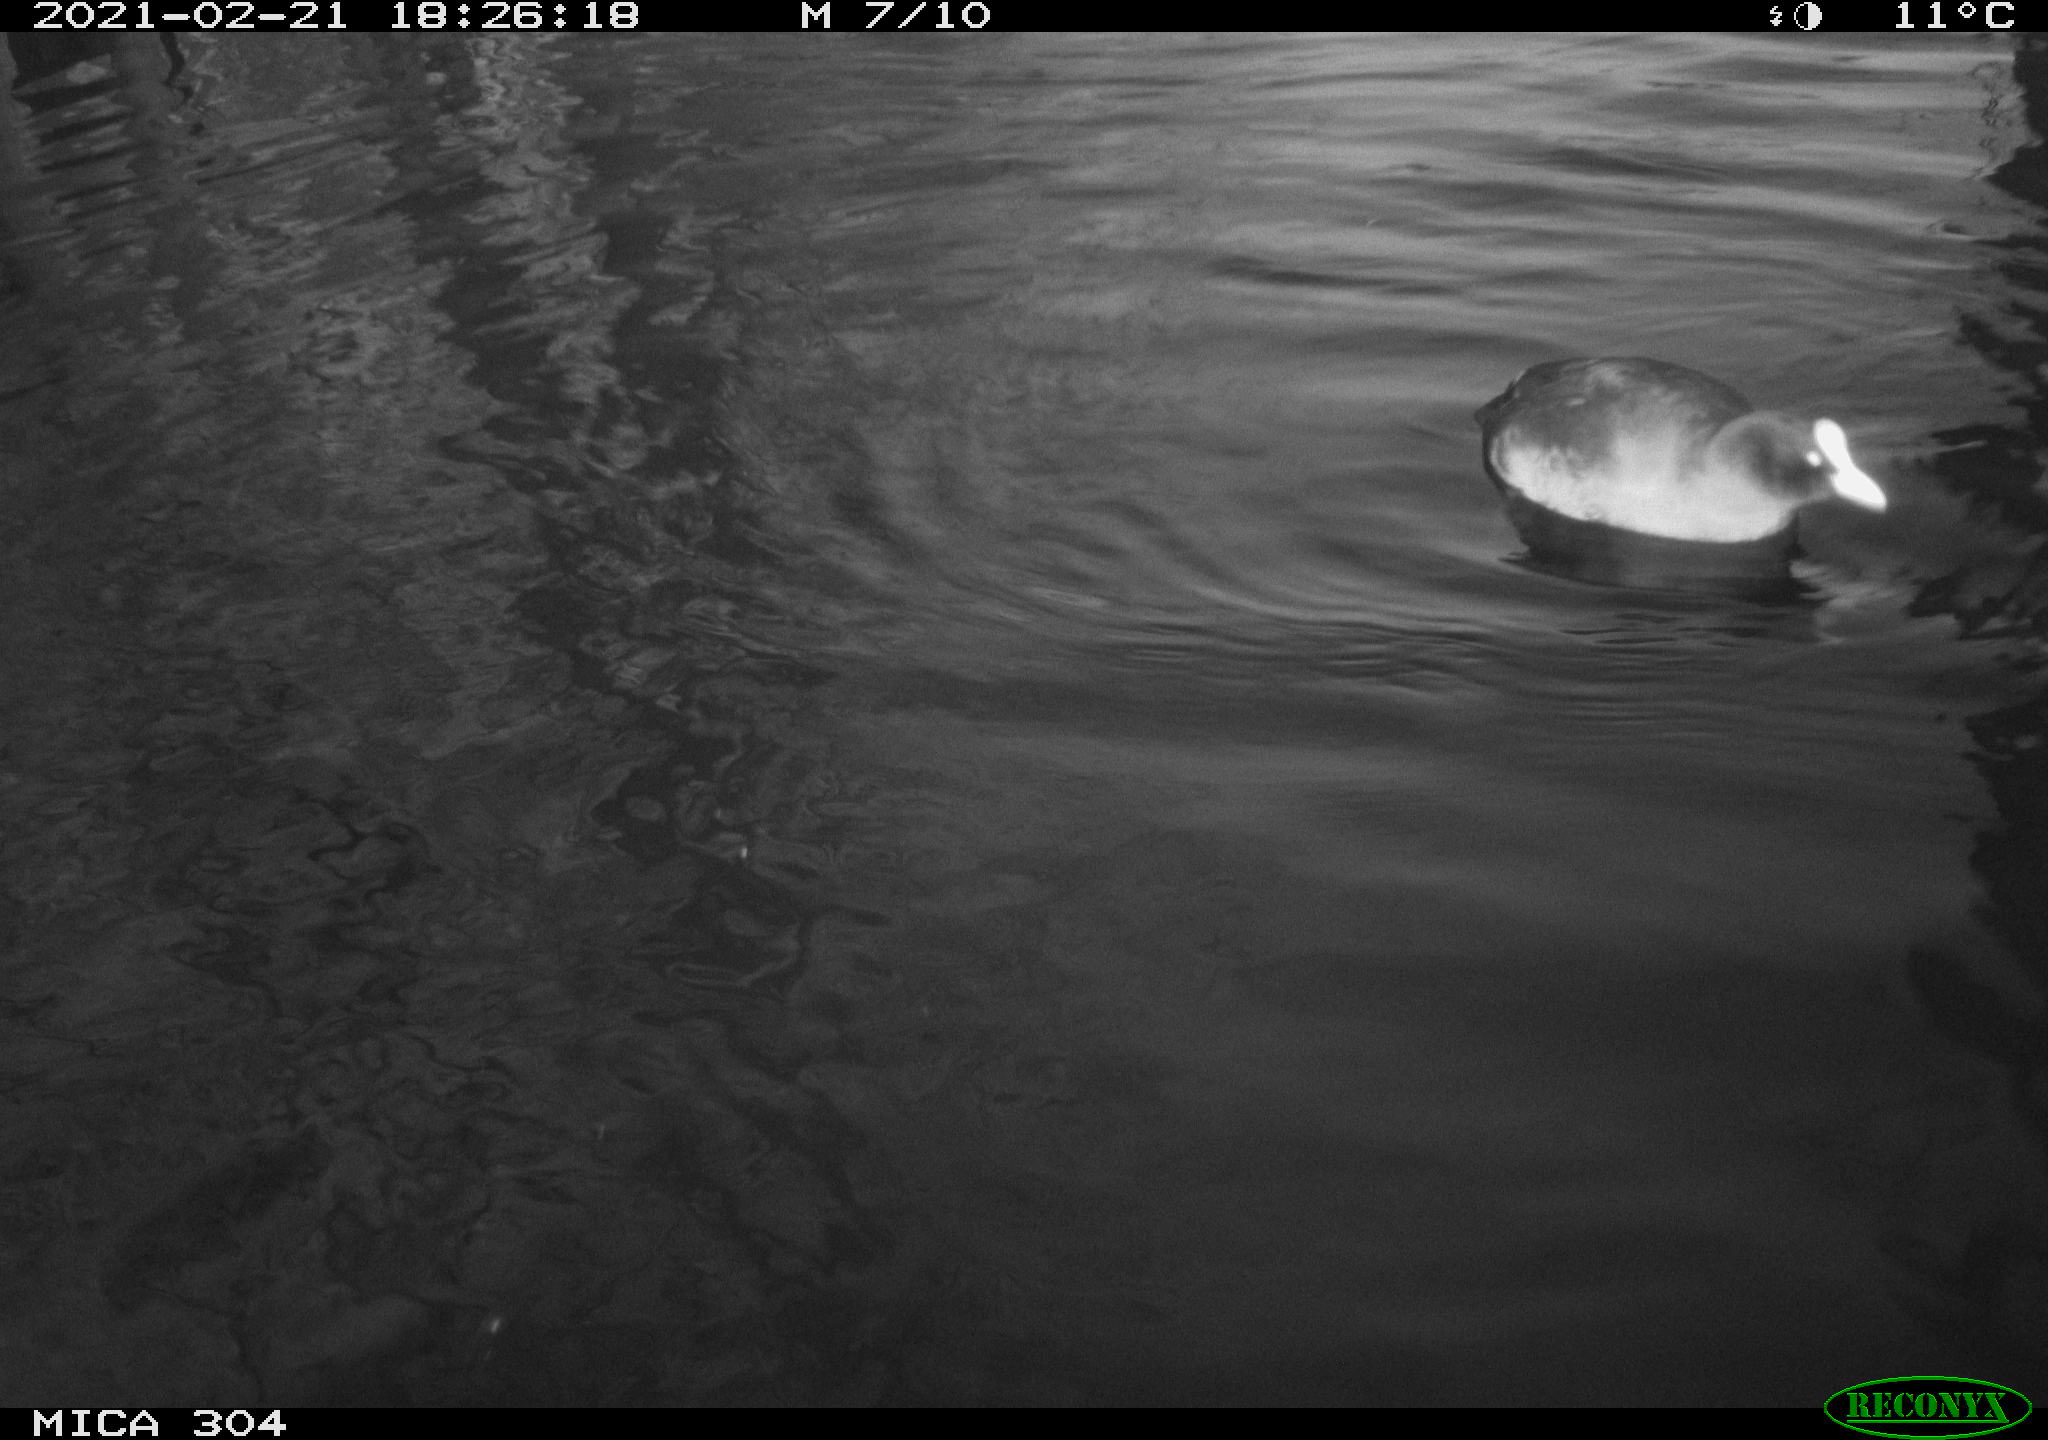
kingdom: Animalia
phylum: Chordata
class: Aves
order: Gruiformes
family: Rallidae
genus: Fulica
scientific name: Fulica atra
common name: Eurasian coot
